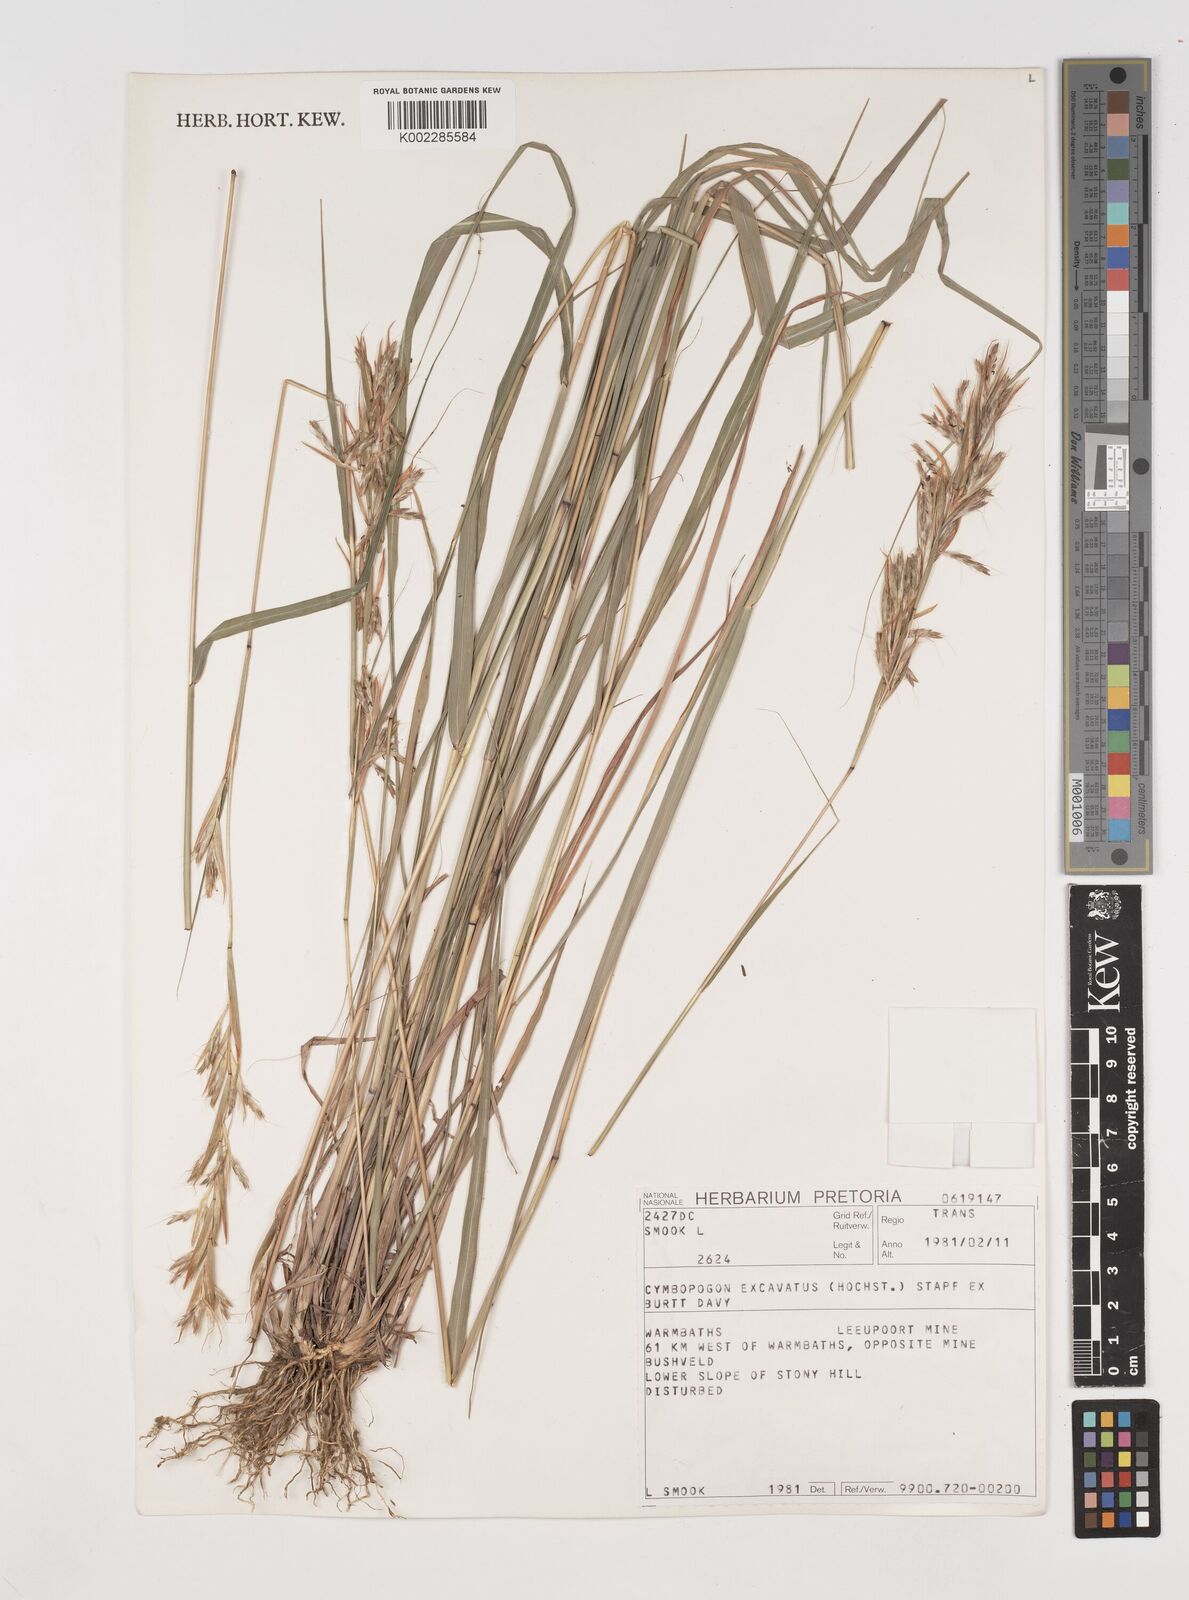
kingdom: Plantae
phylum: Tracheophyta
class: Liliopsida
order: Poales
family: Poaceae
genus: Cymbopogon
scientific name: Cymbopogon caesius
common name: Kachi grass
